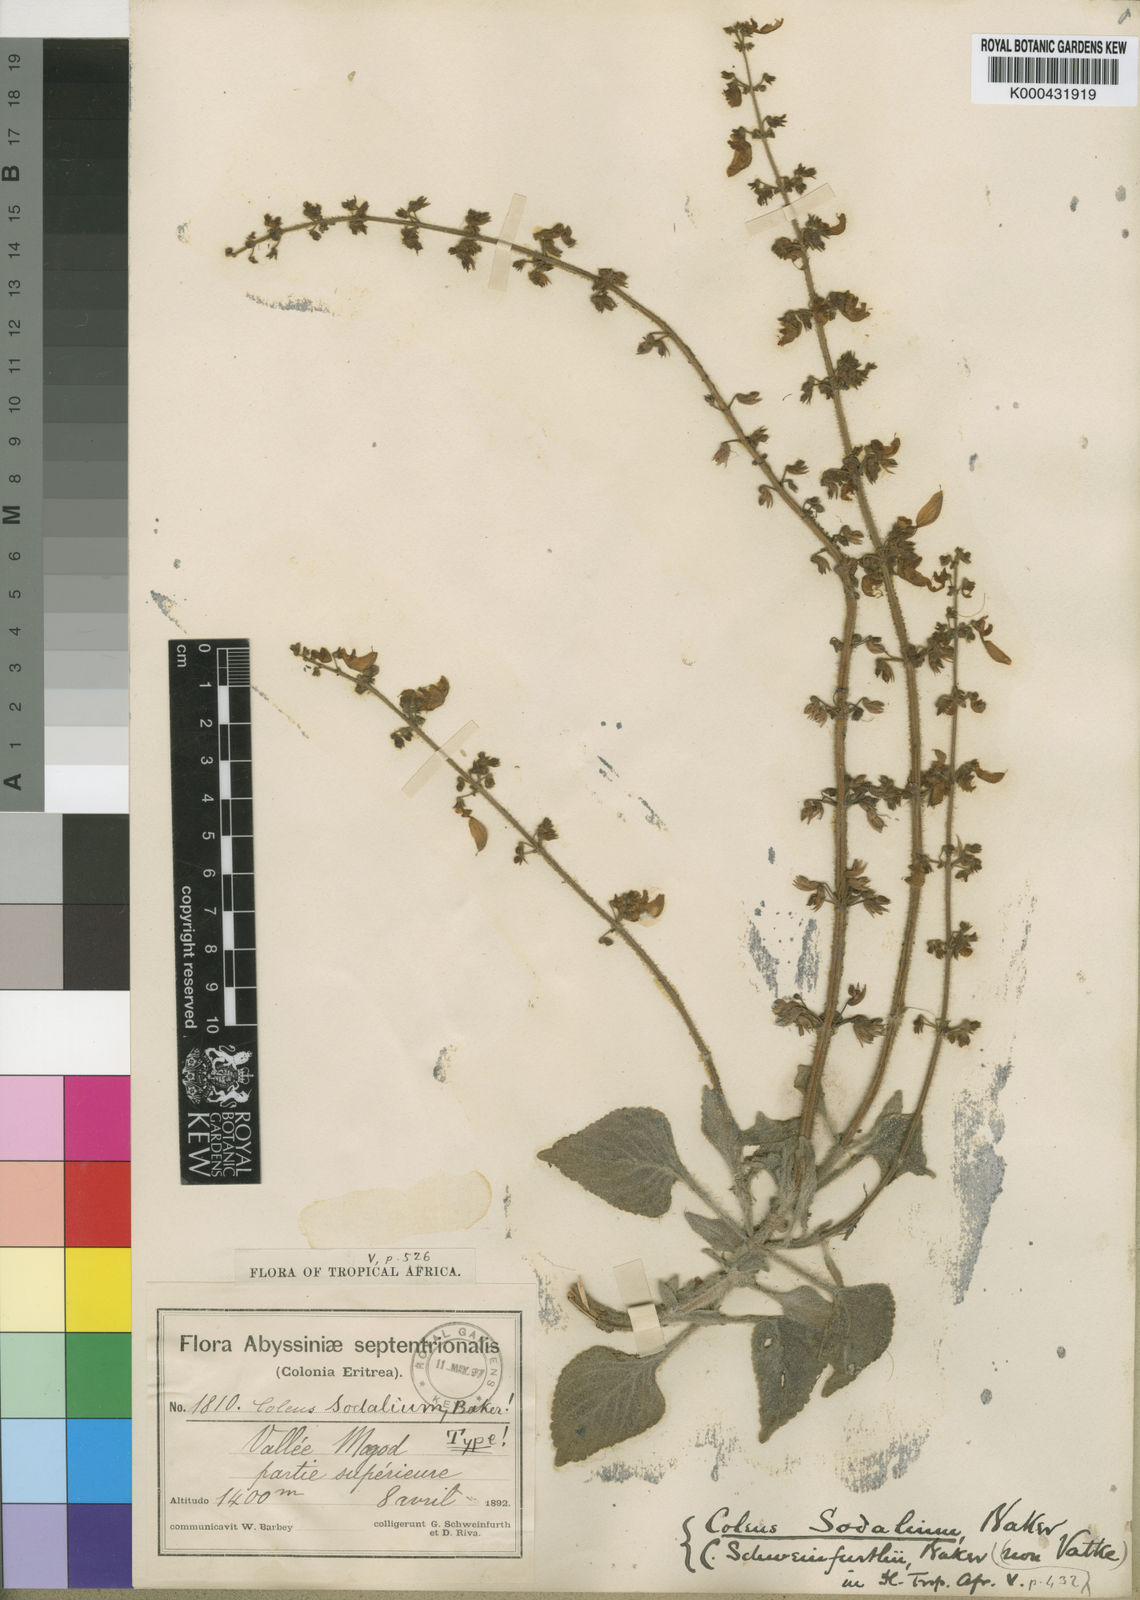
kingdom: Plantae
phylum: Tracheophyta
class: Magnoliopsida
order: Lamiales
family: Lamiaceae
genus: Coleus
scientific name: Coleus lanuginosus
